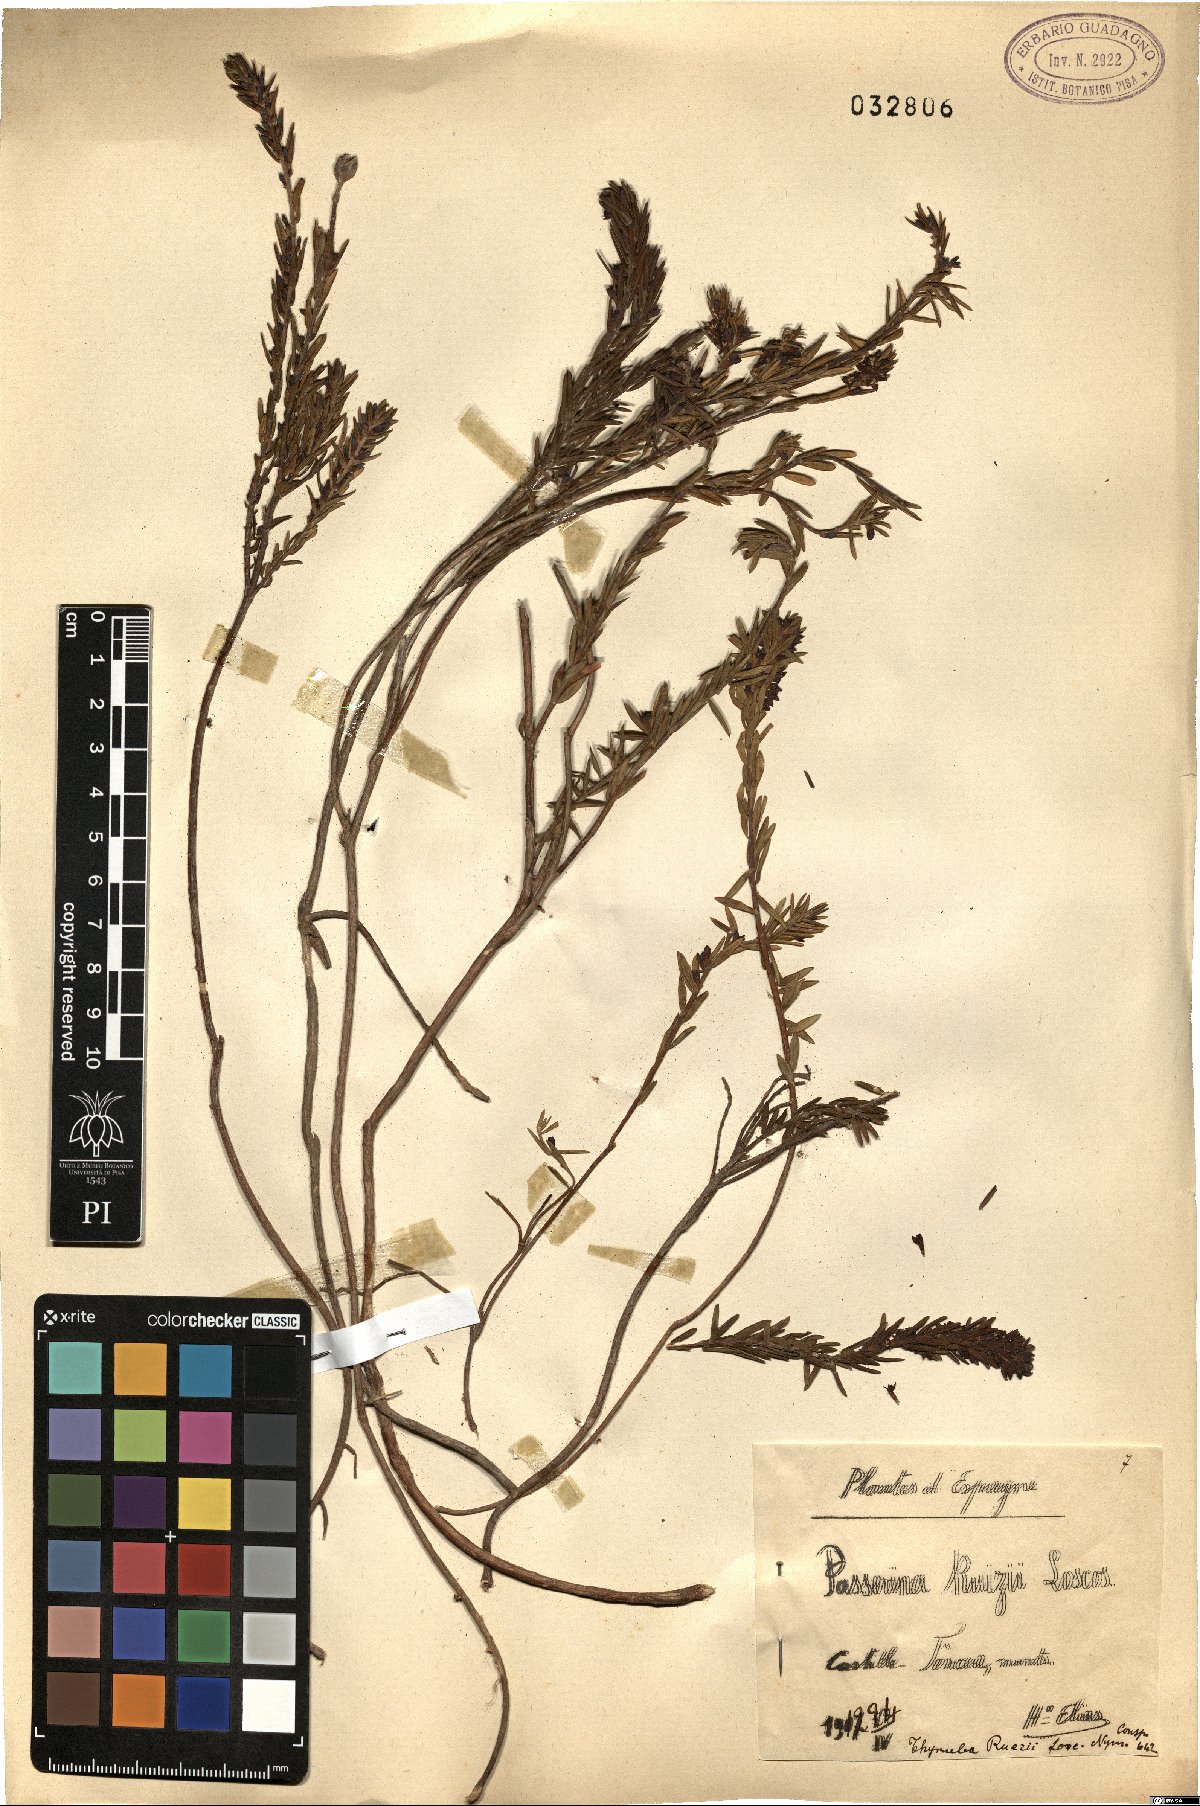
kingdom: Plantae
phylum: Tracheophyta
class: Magnoliopsida
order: Malvales
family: Thymelaeaceae
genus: Thymelaea
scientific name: Thymelaea ruizii
